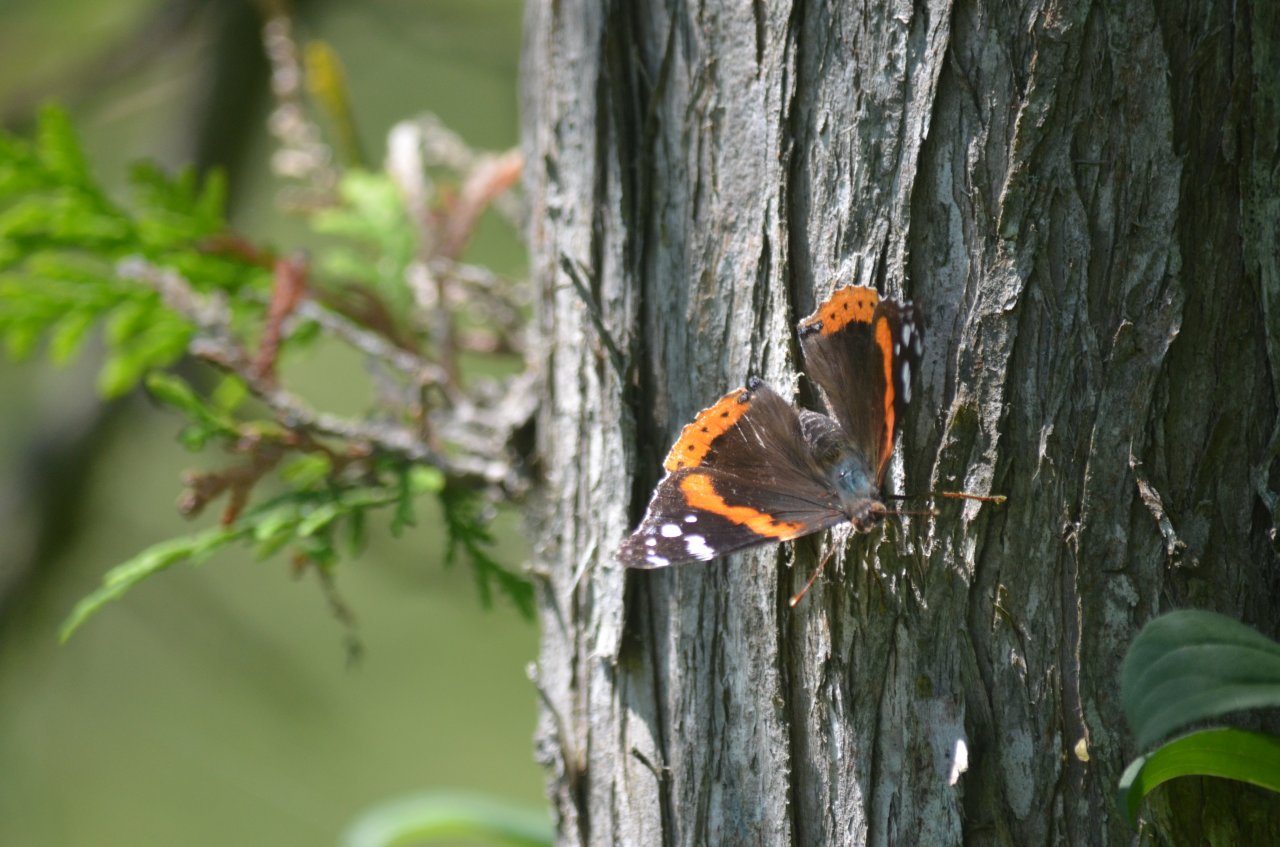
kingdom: Animalia
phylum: Arthropoda
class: Insecta
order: Lepidoptera
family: Nymphalidae
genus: Vanessa
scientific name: Vanessa atalanta
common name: Red Admiral
